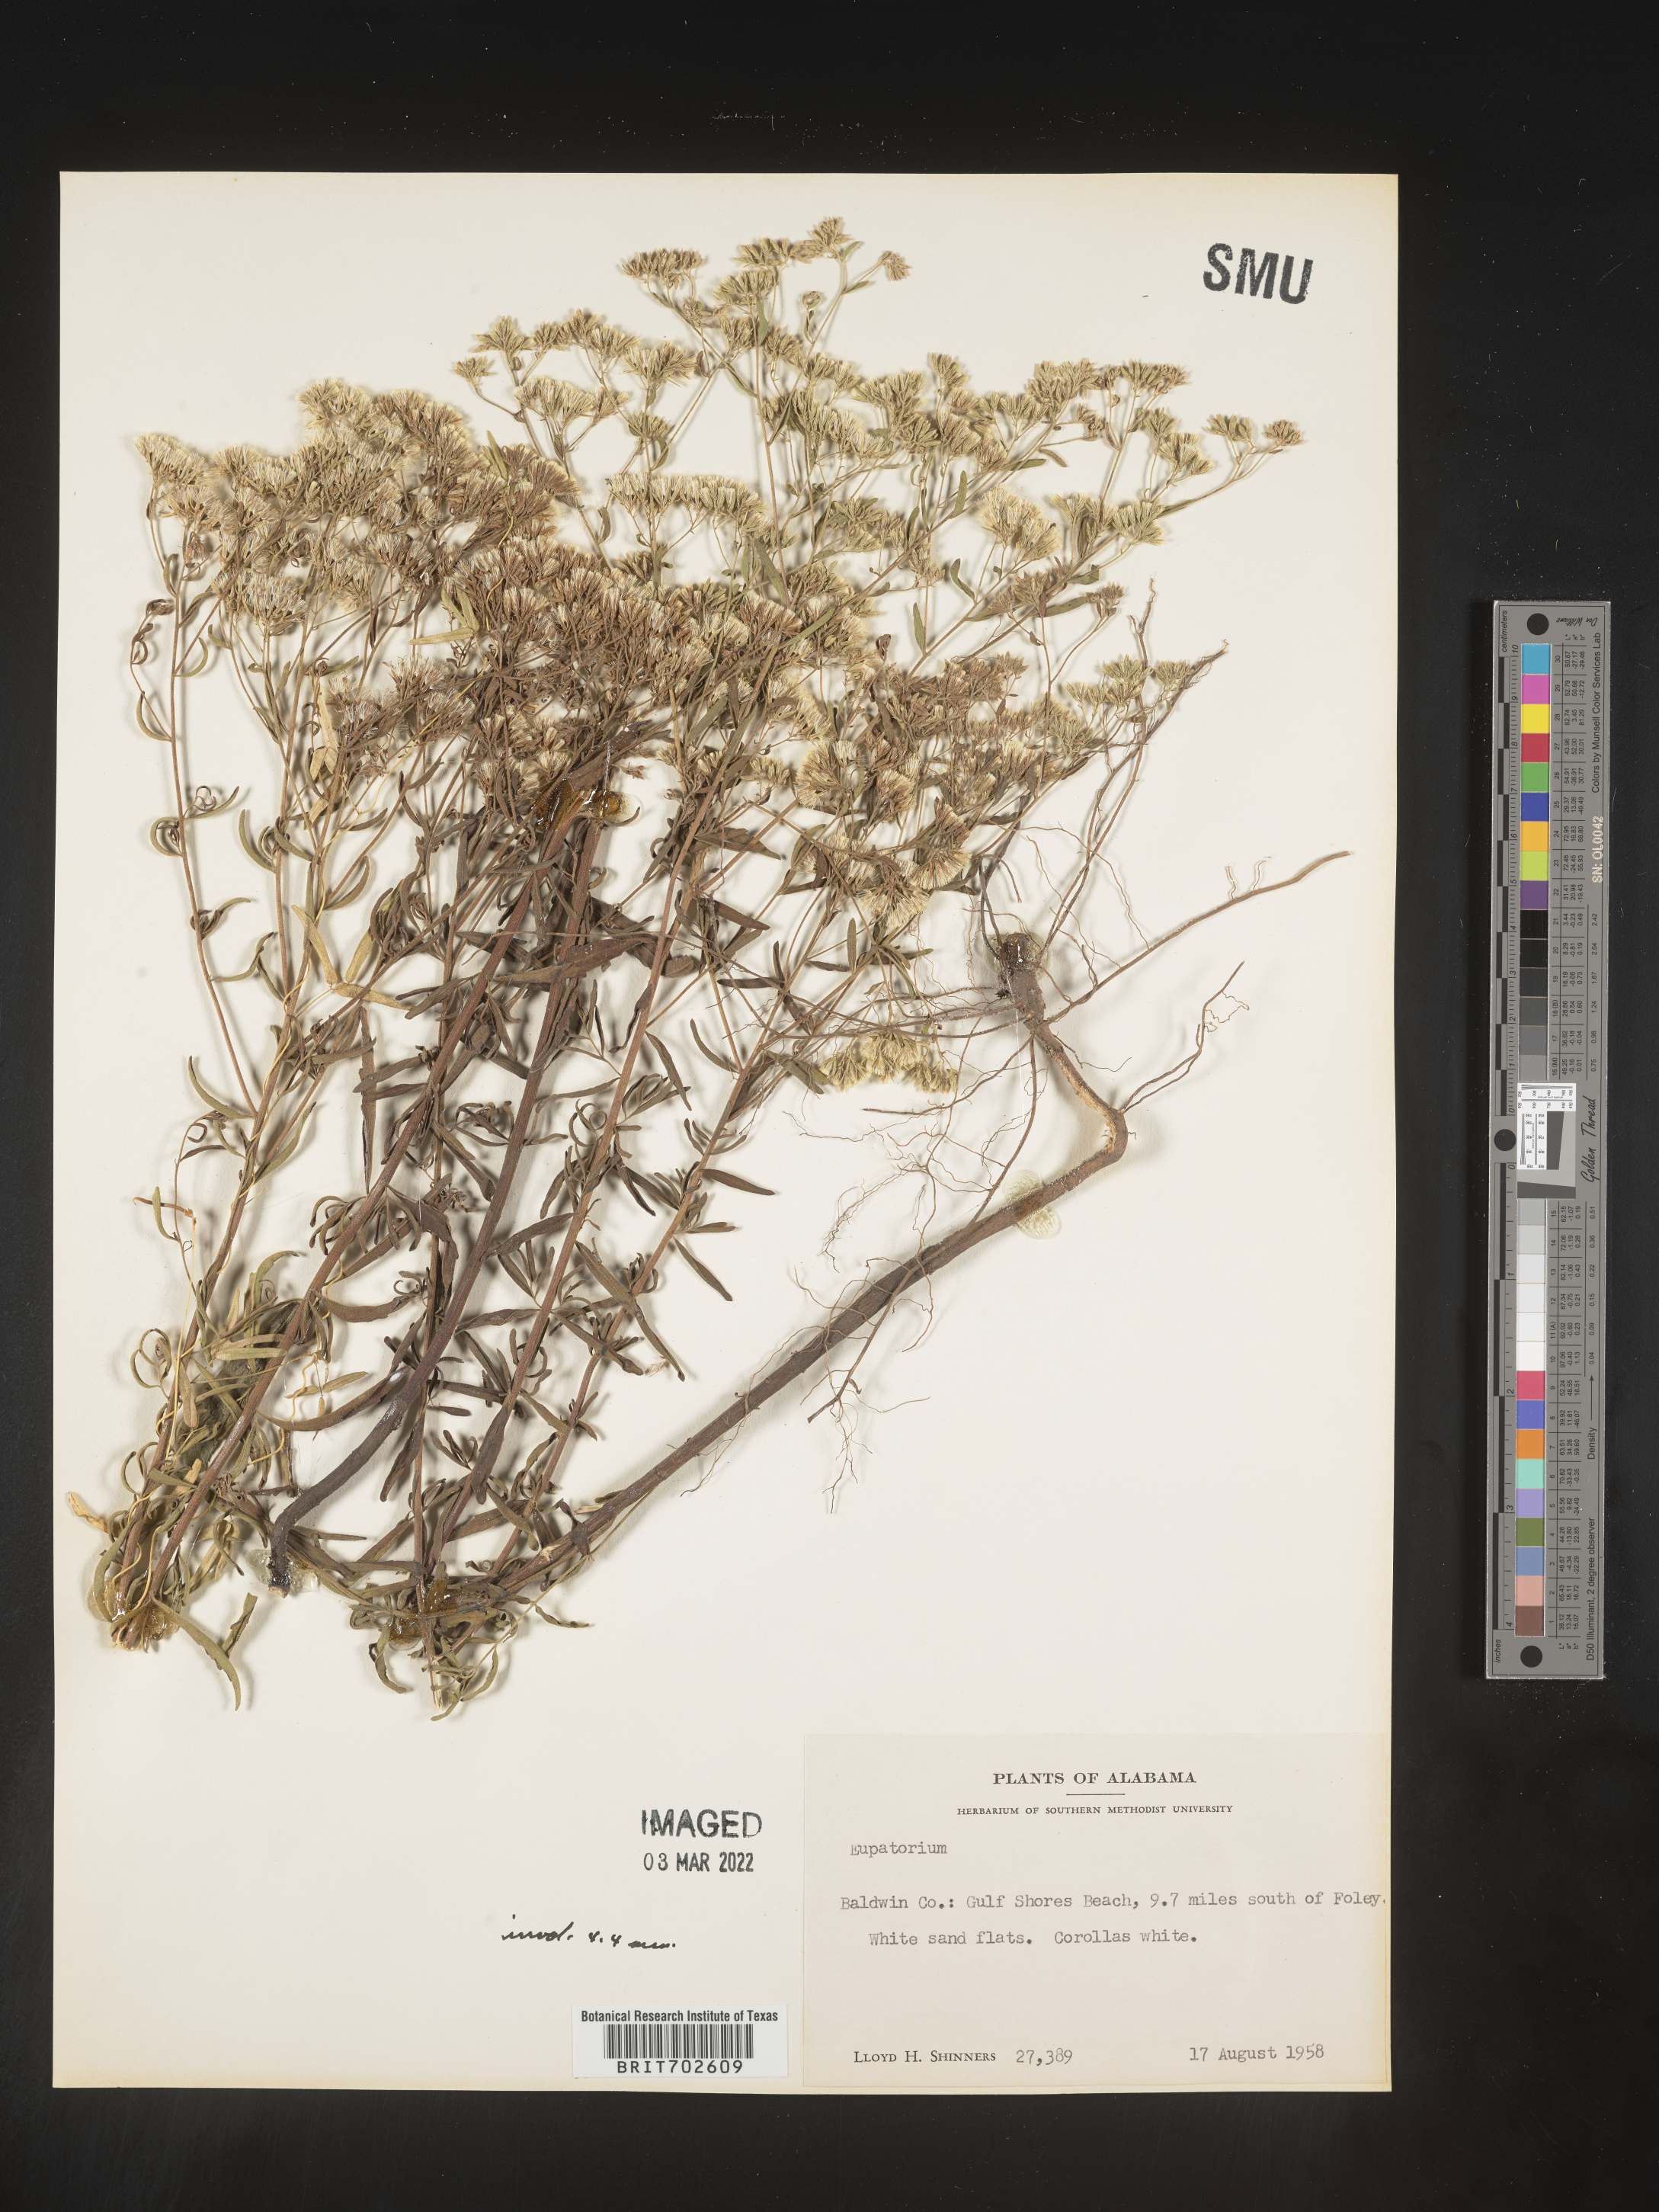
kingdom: Plantae
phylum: Tracheophyta
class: Magnoliopsida
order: Asterales
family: Asteraceae
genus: Eupatorium
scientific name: Eupatorium
